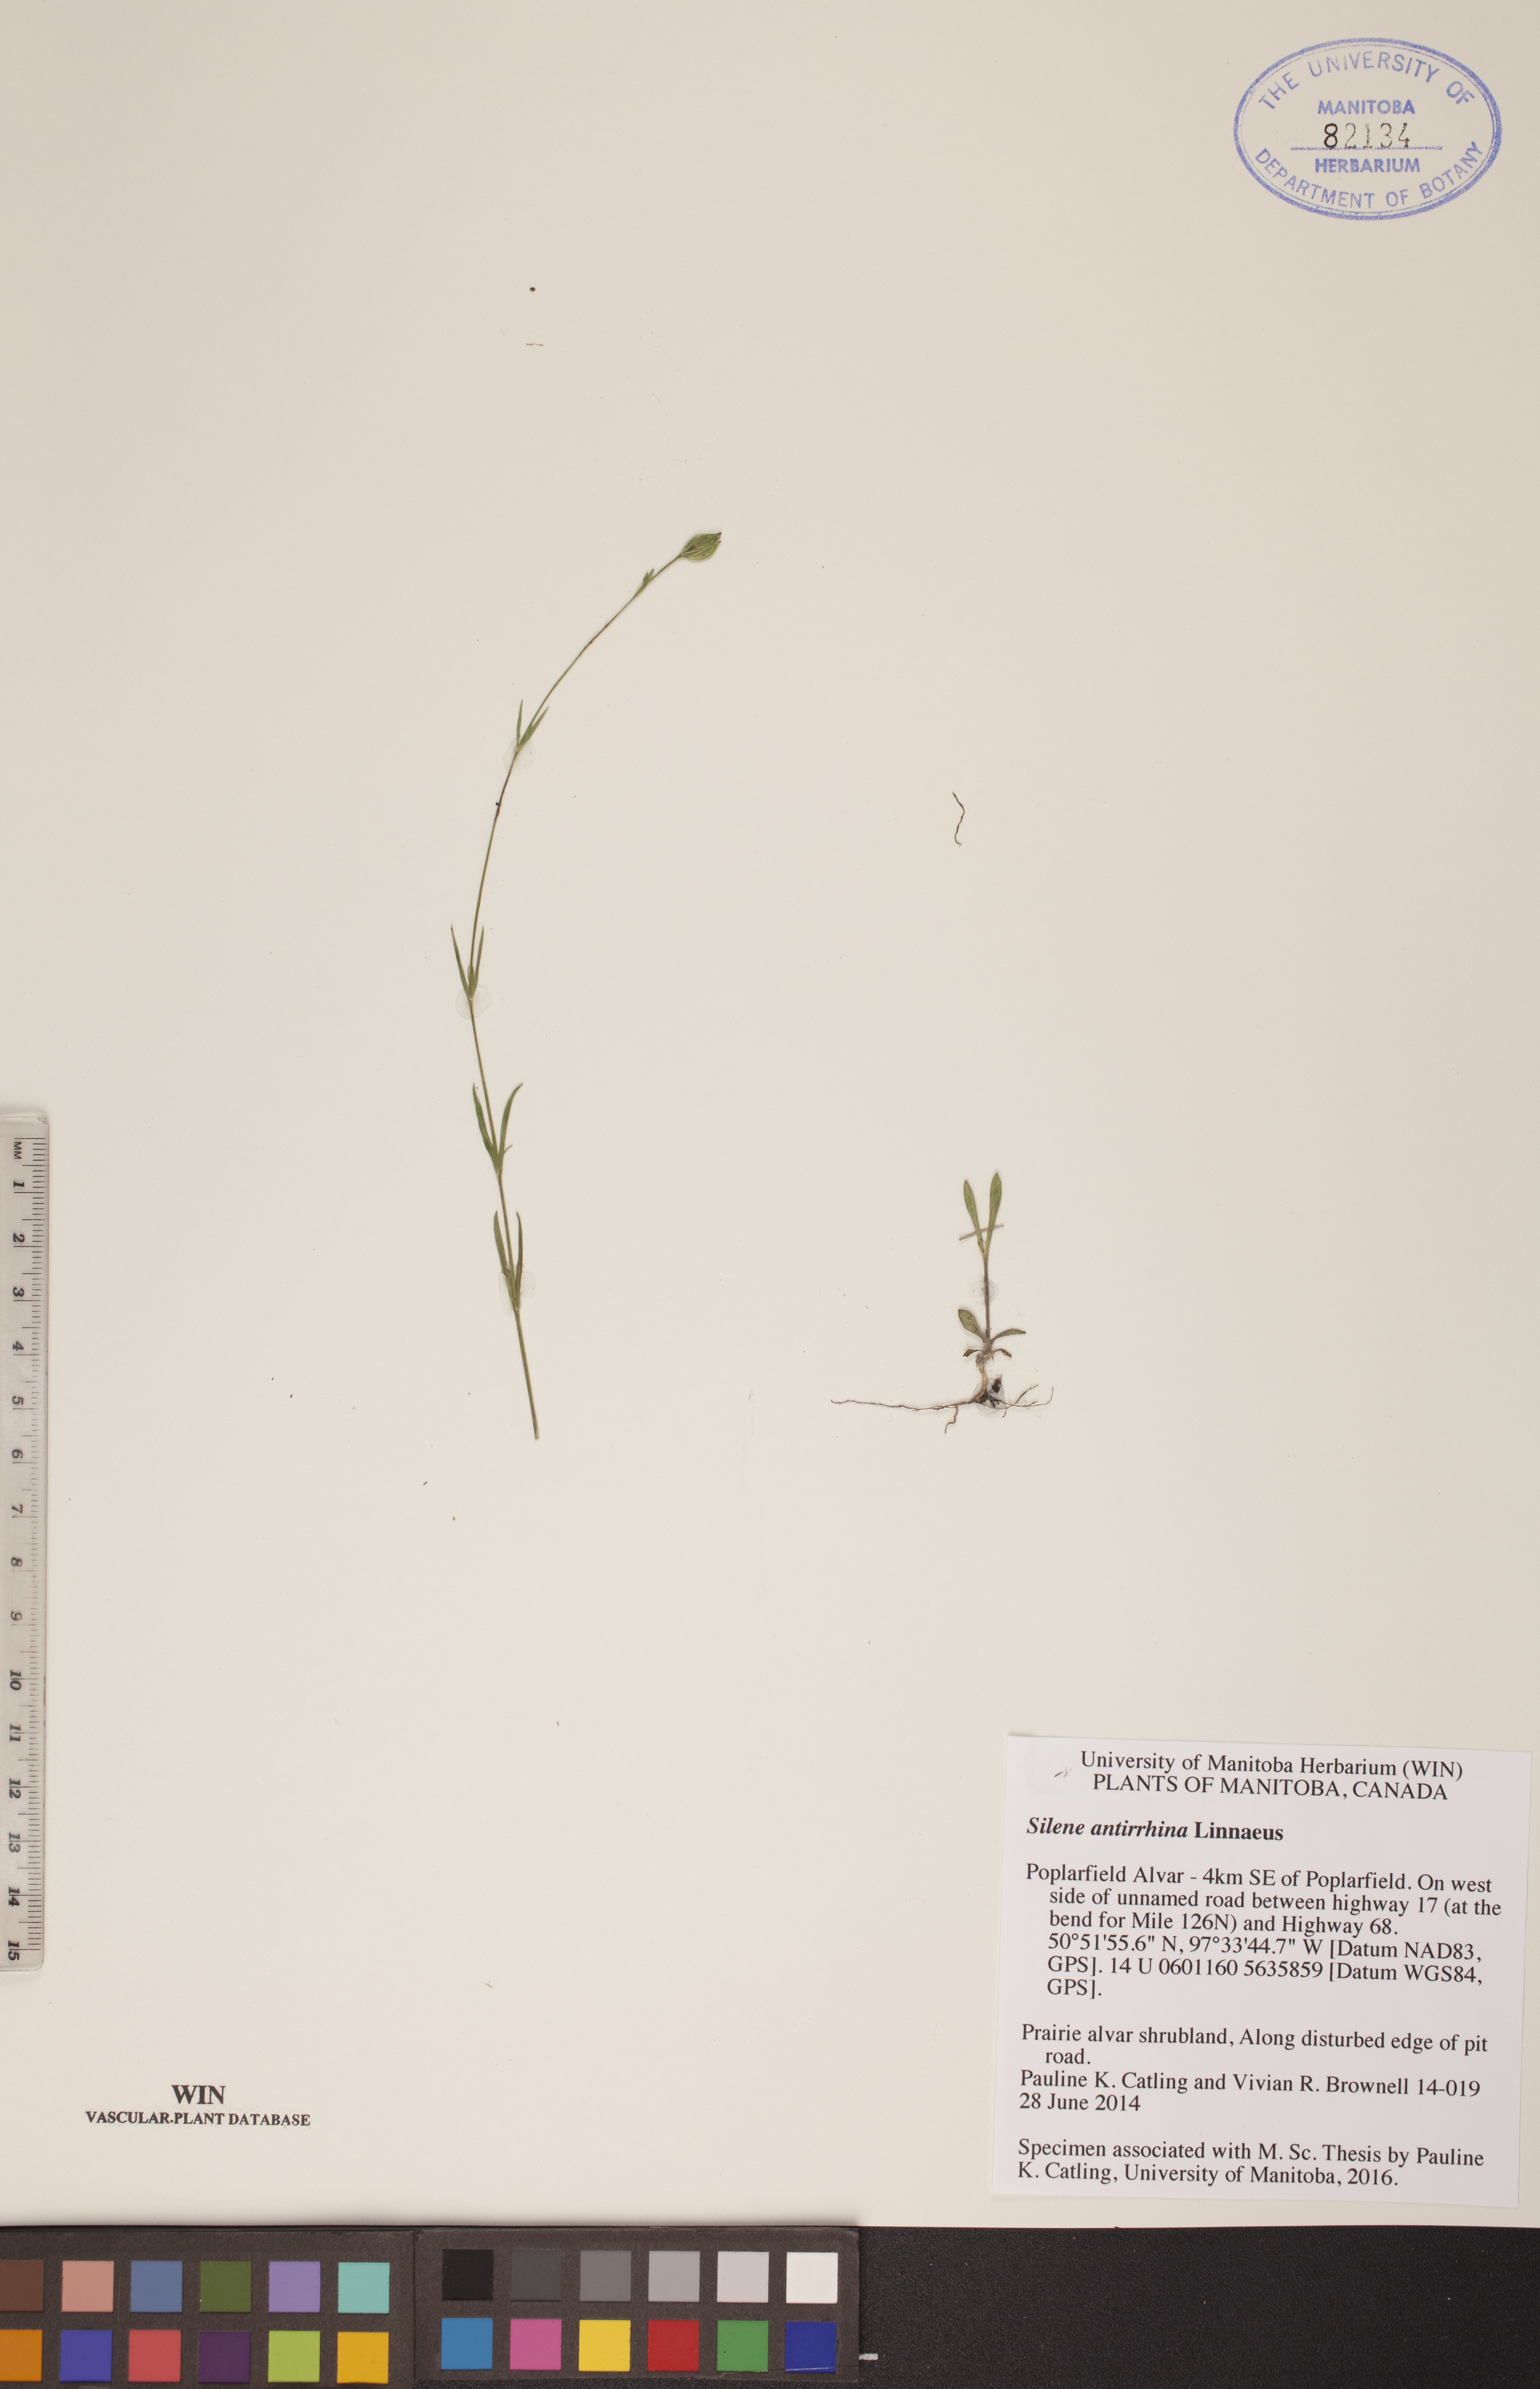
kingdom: Plantae
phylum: Tracheophyta
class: Magnoliopsida
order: Caryophyllales
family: Caryophyllaceae
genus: Silene
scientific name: Silene antirrhina
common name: Sleepy catchfly
